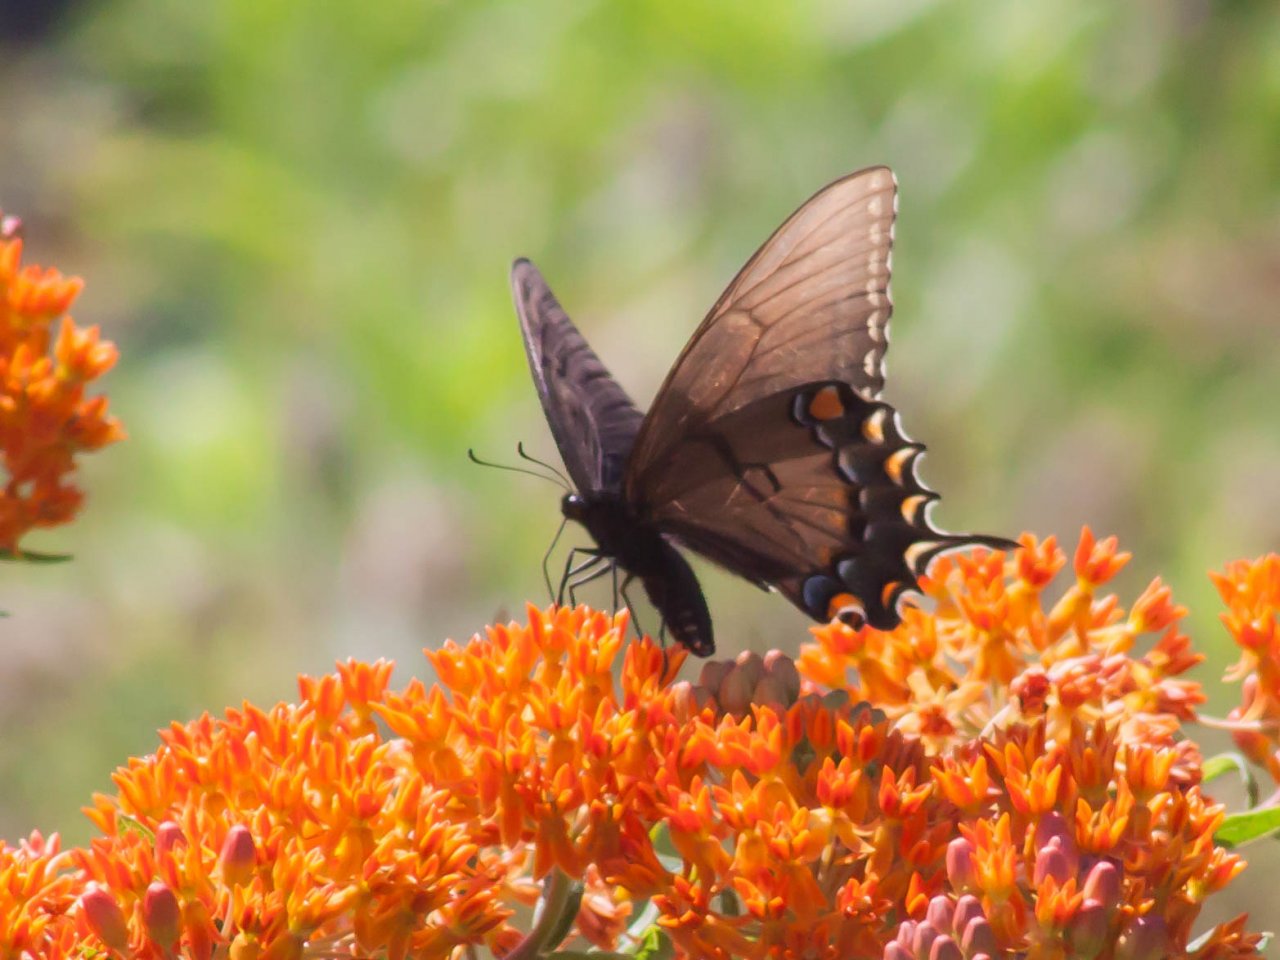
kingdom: Animalia
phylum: Arthropoda
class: Insecta
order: Lepidoptera
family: Papilionidae
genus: Pterourus
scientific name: Pterourus glaucus
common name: Eastern Tiger Swallowtail
